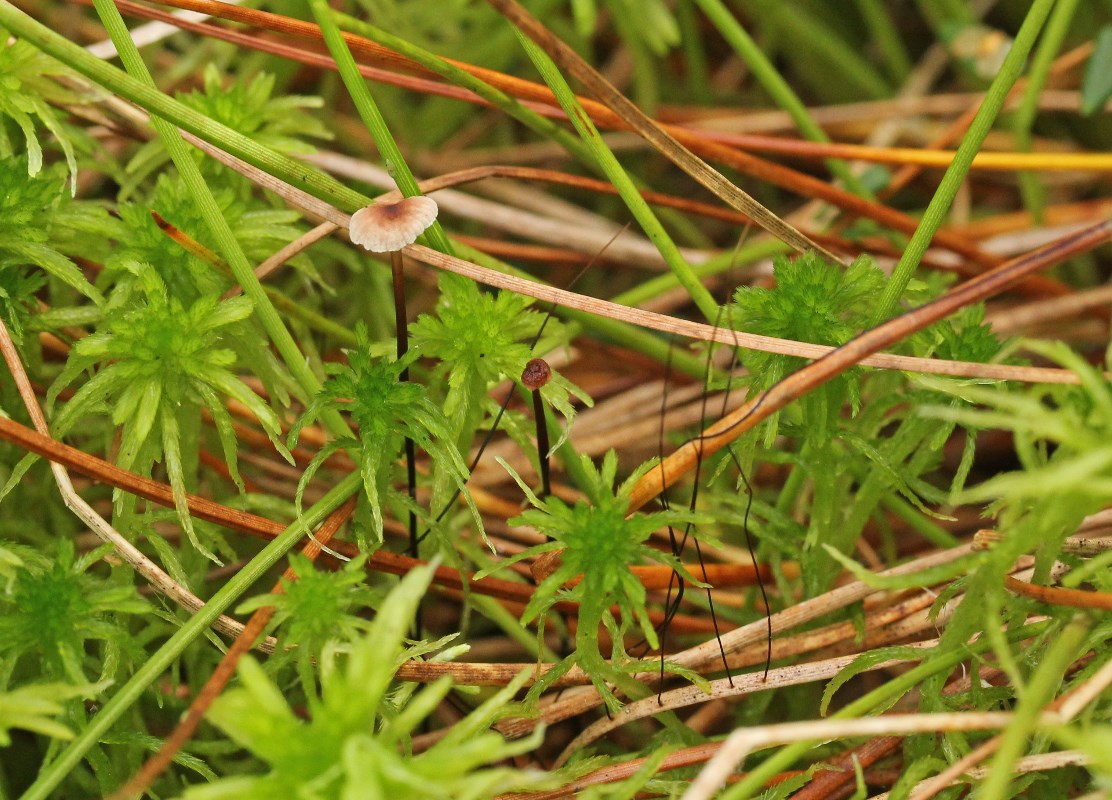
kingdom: Fungi
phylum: Basidiomycota
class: Agaricomycetes
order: Agaricales
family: Omphalotaceae
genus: Gymnopus
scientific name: Gymnopus androsaceus
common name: trådstokket fladhat
